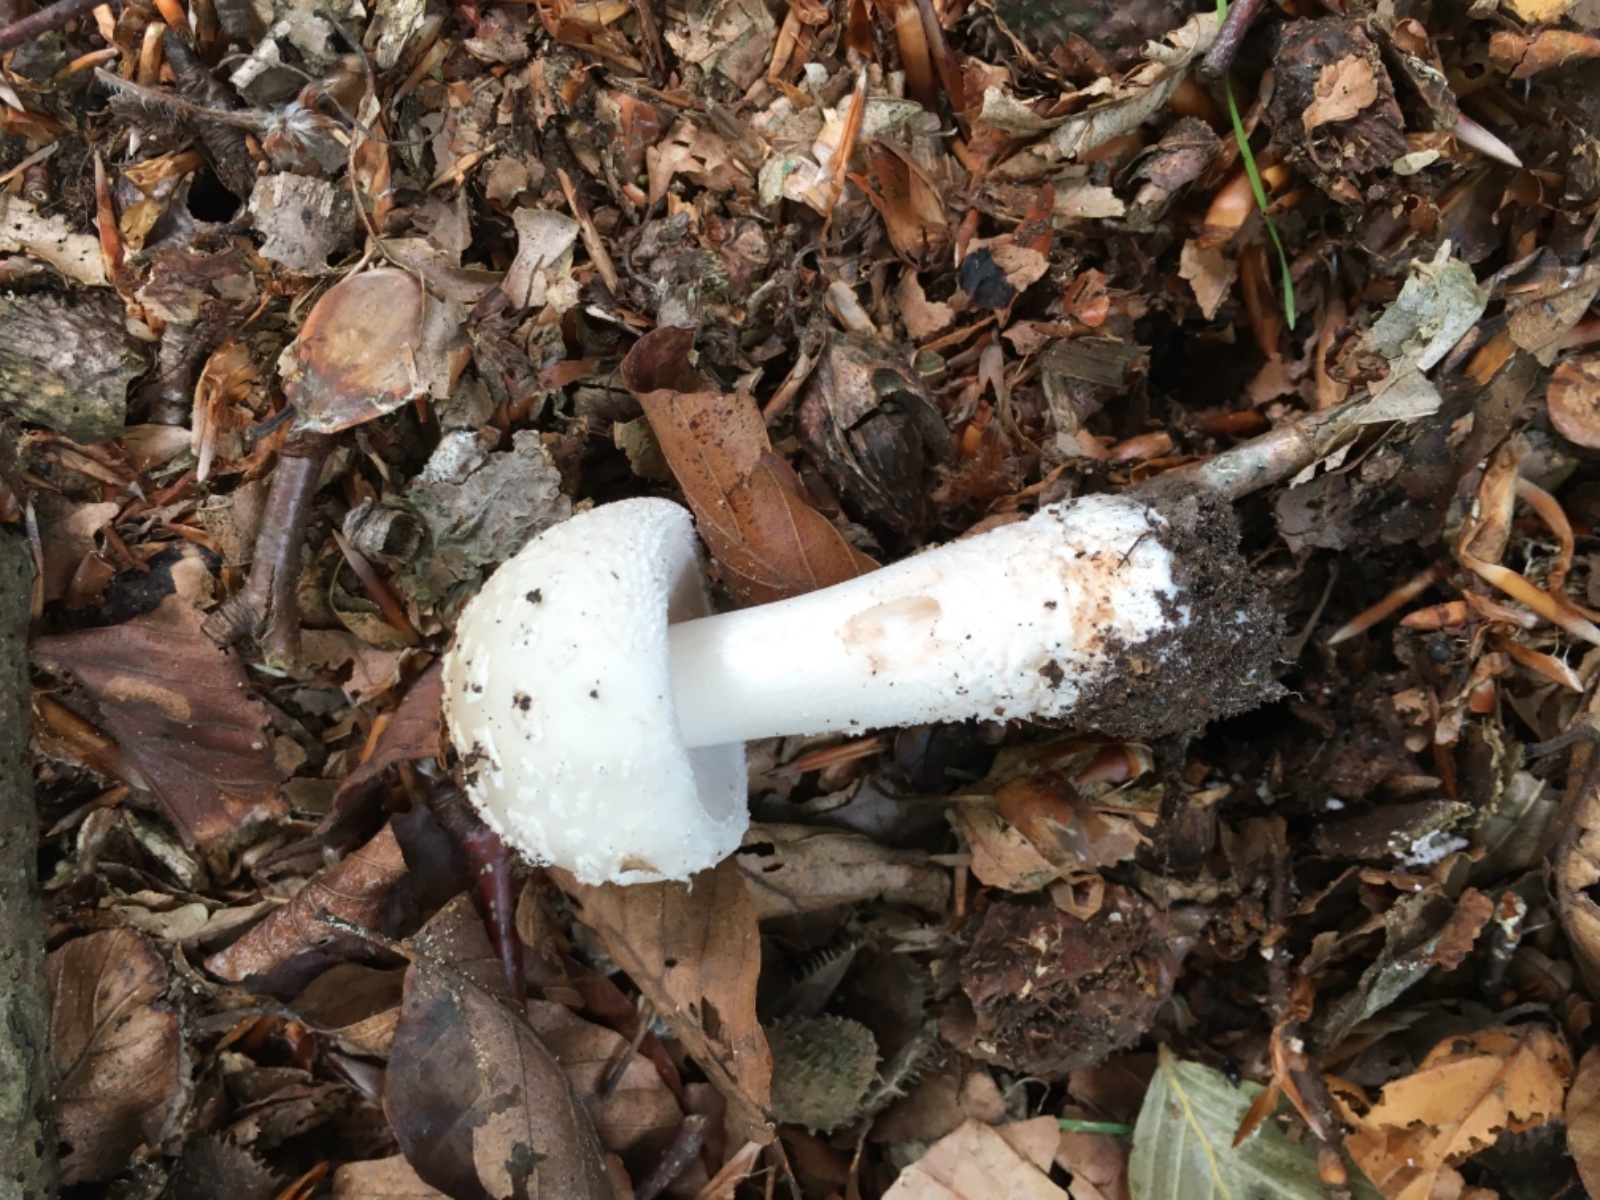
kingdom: Fungi
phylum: Basidiomycota
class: Agaricomycetes
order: Agaricales
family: Amanitaceae
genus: Amanita
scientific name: Amanita rubescens
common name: rødmende fluesvamp
